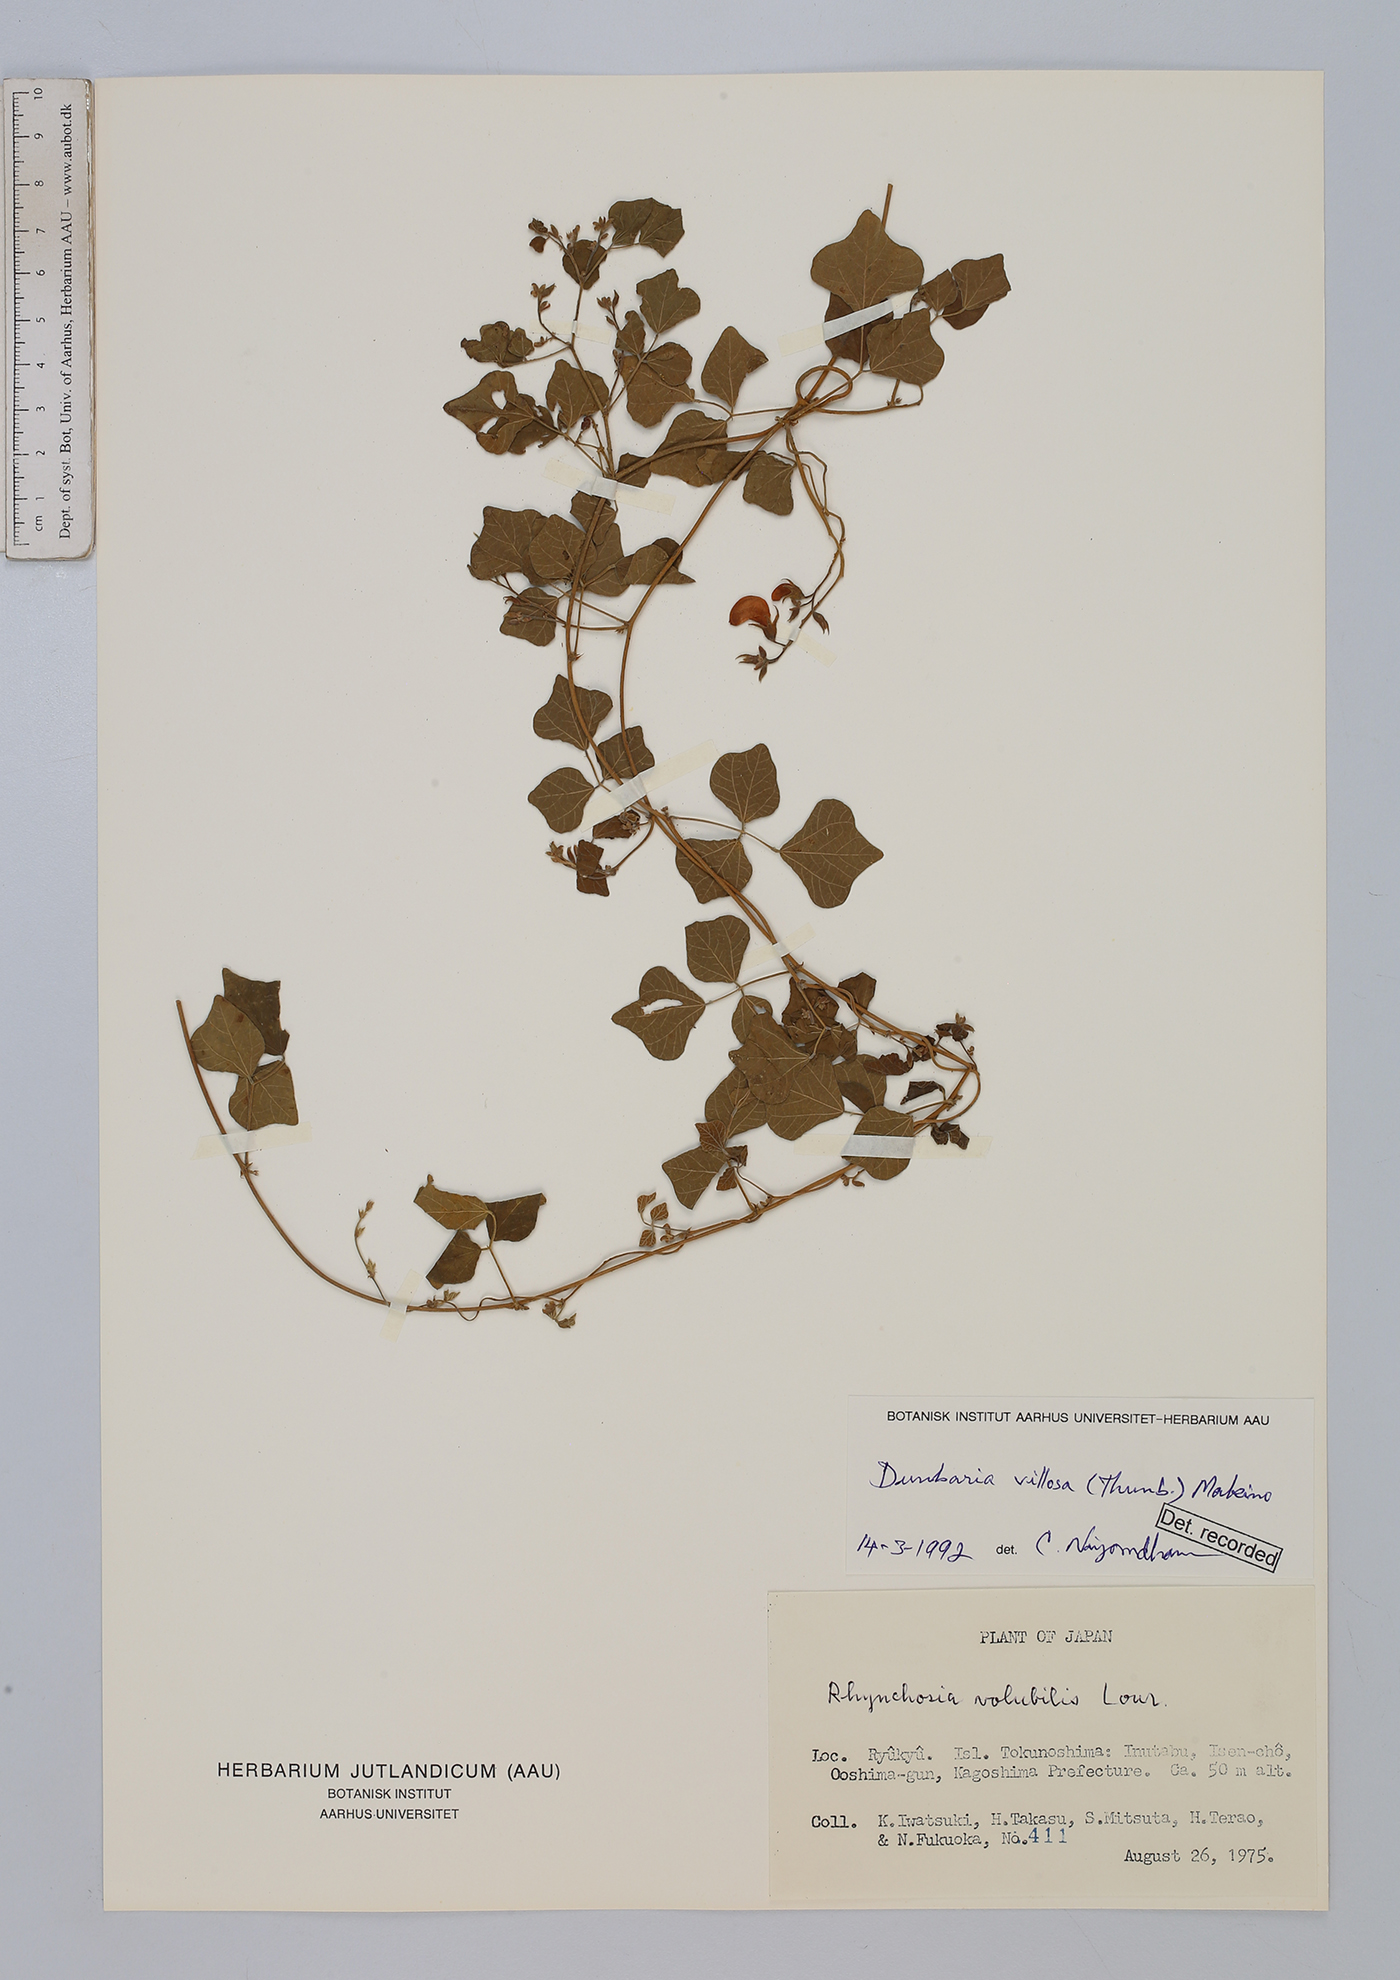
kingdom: Plantae
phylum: Tracheophyta
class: Magnoliopsida
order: Fabales
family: Fabaceae
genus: Dunbaria
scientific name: Dunbaria villosa
